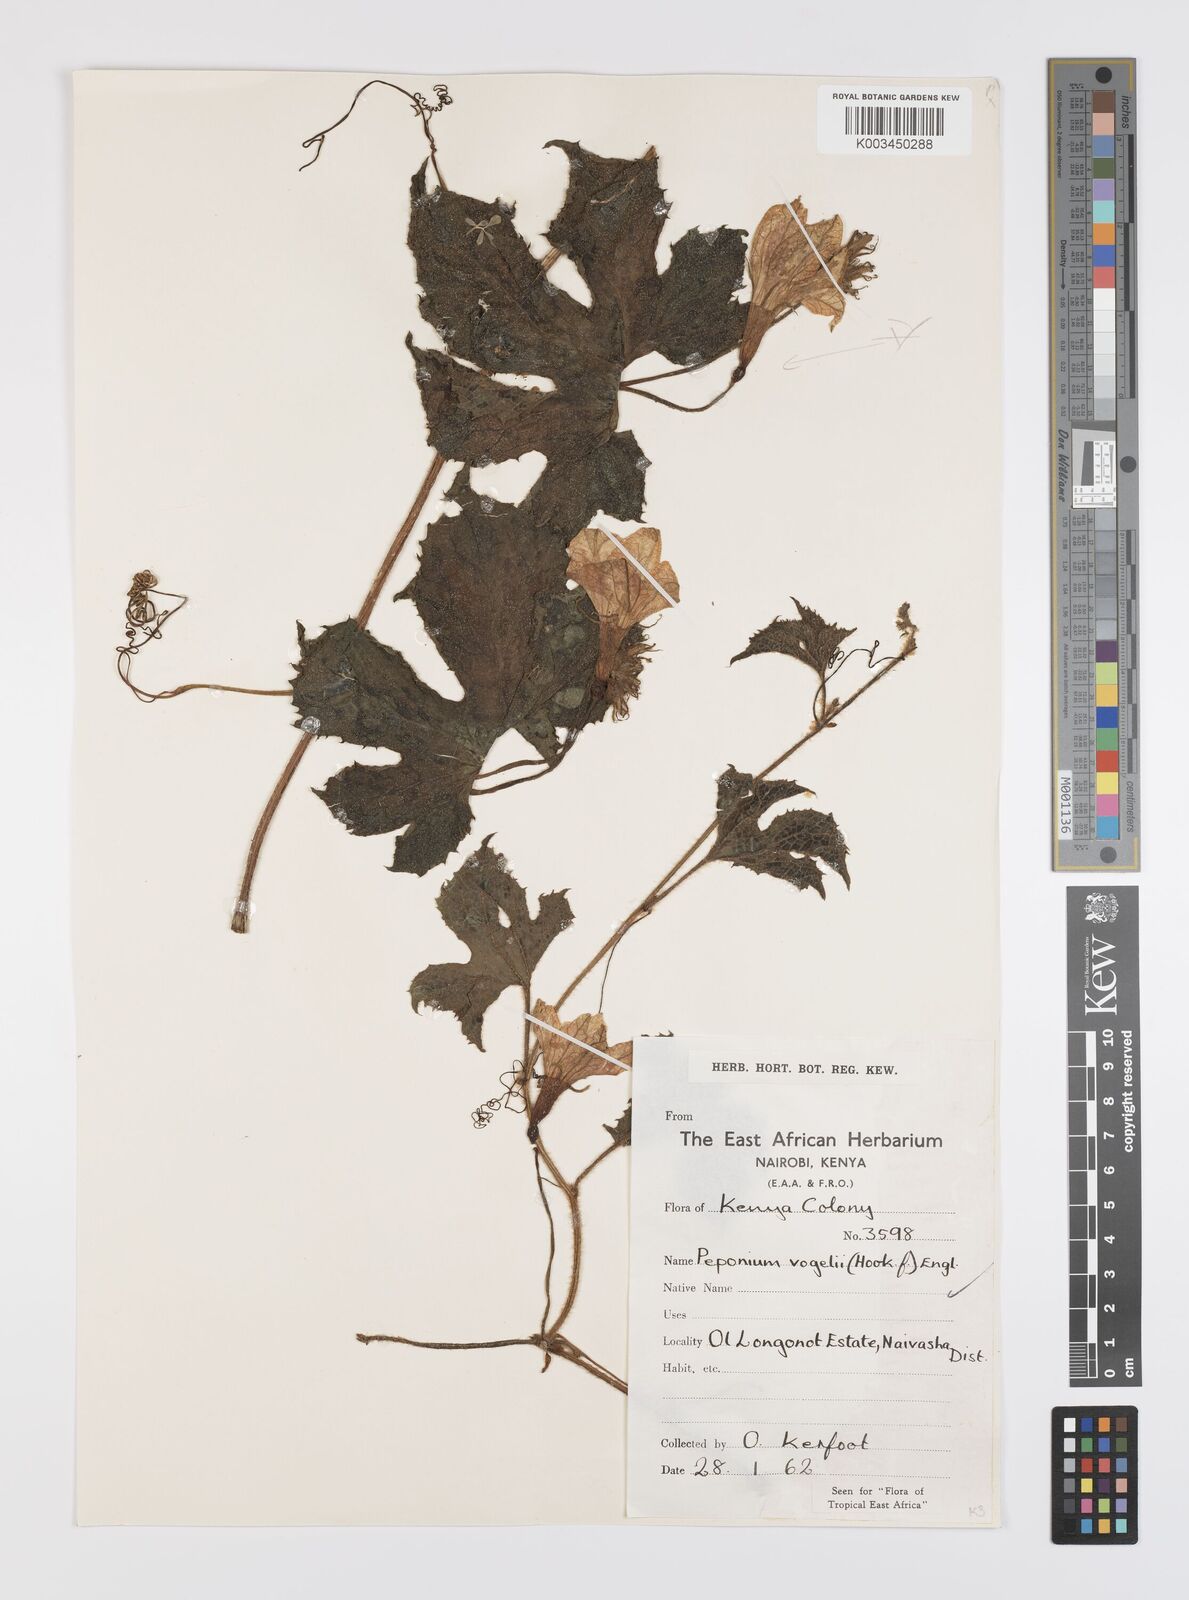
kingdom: Plantae
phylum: Tracheophyta
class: Magnoliopsida
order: Cucurbitales
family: Cucurbitaceae
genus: Peponium
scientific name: Peponium vogelii
